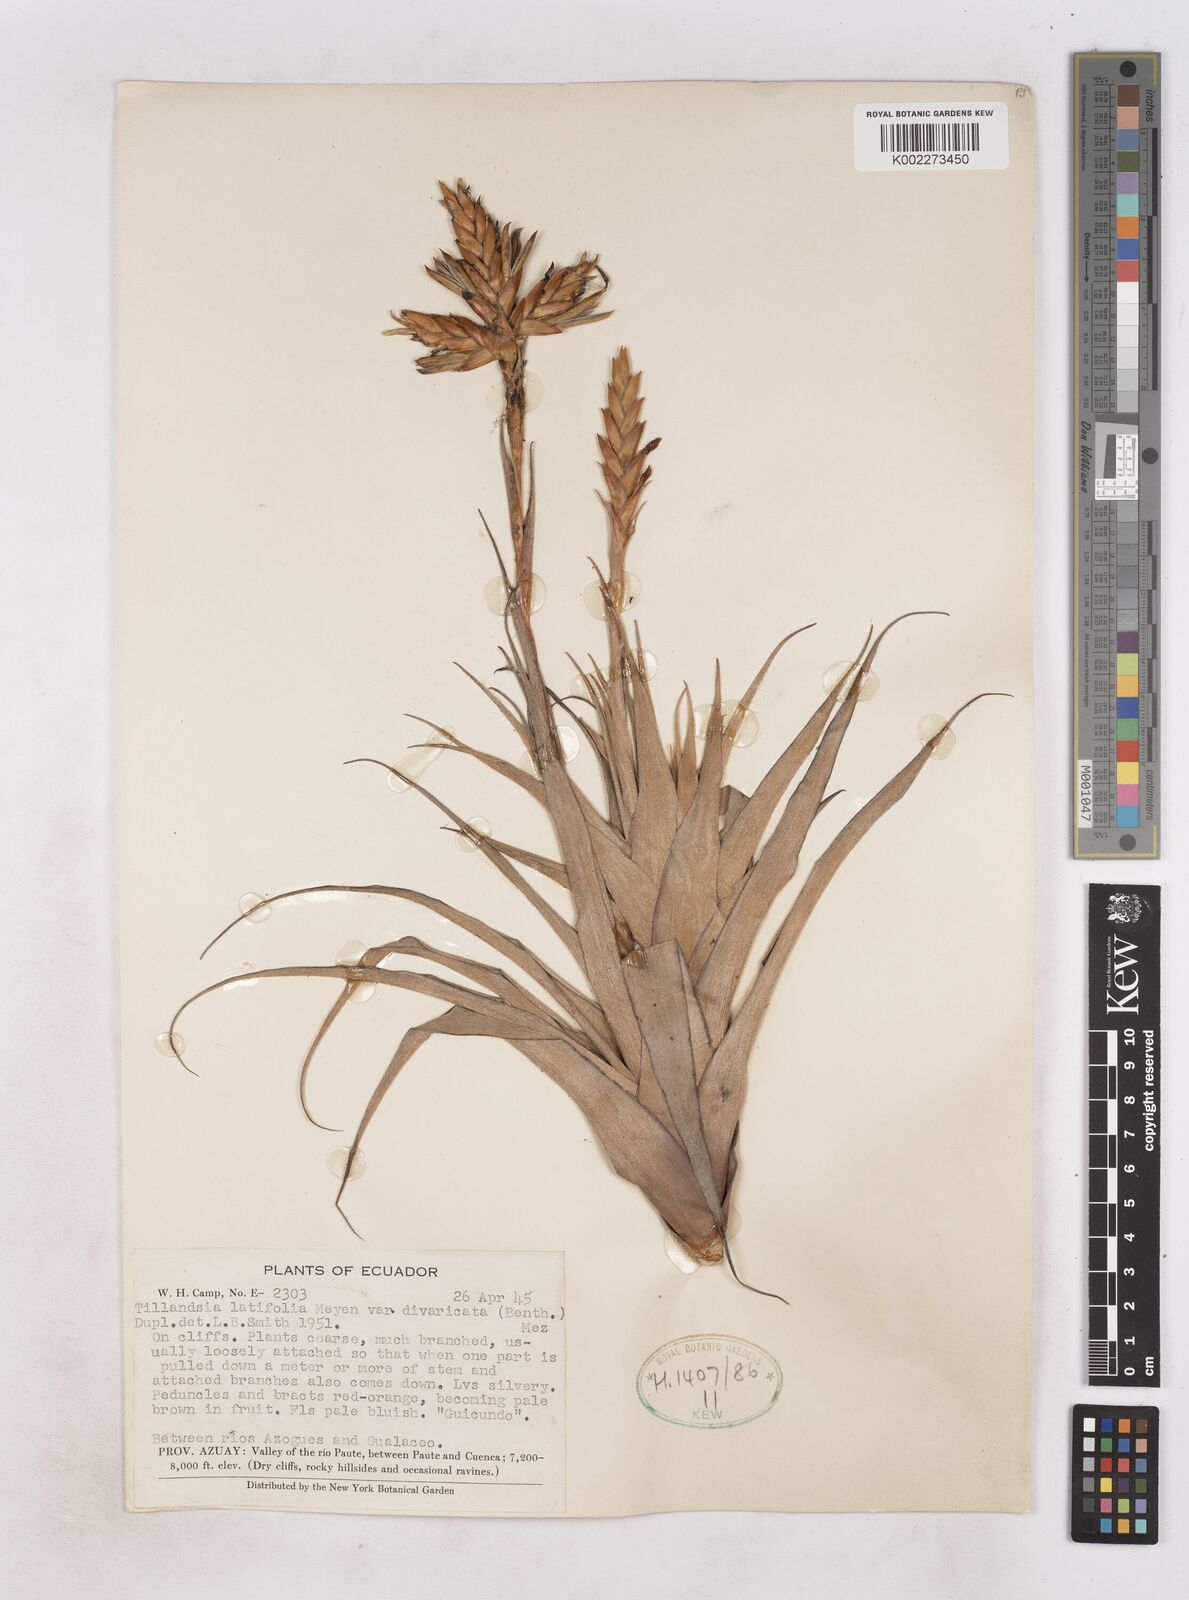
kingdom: Plantae
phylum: Tracheophyta
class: Liliopsida
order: Poales
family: Bromeliaceae
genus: Tillandsia
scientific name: Tillandsia latifolia
